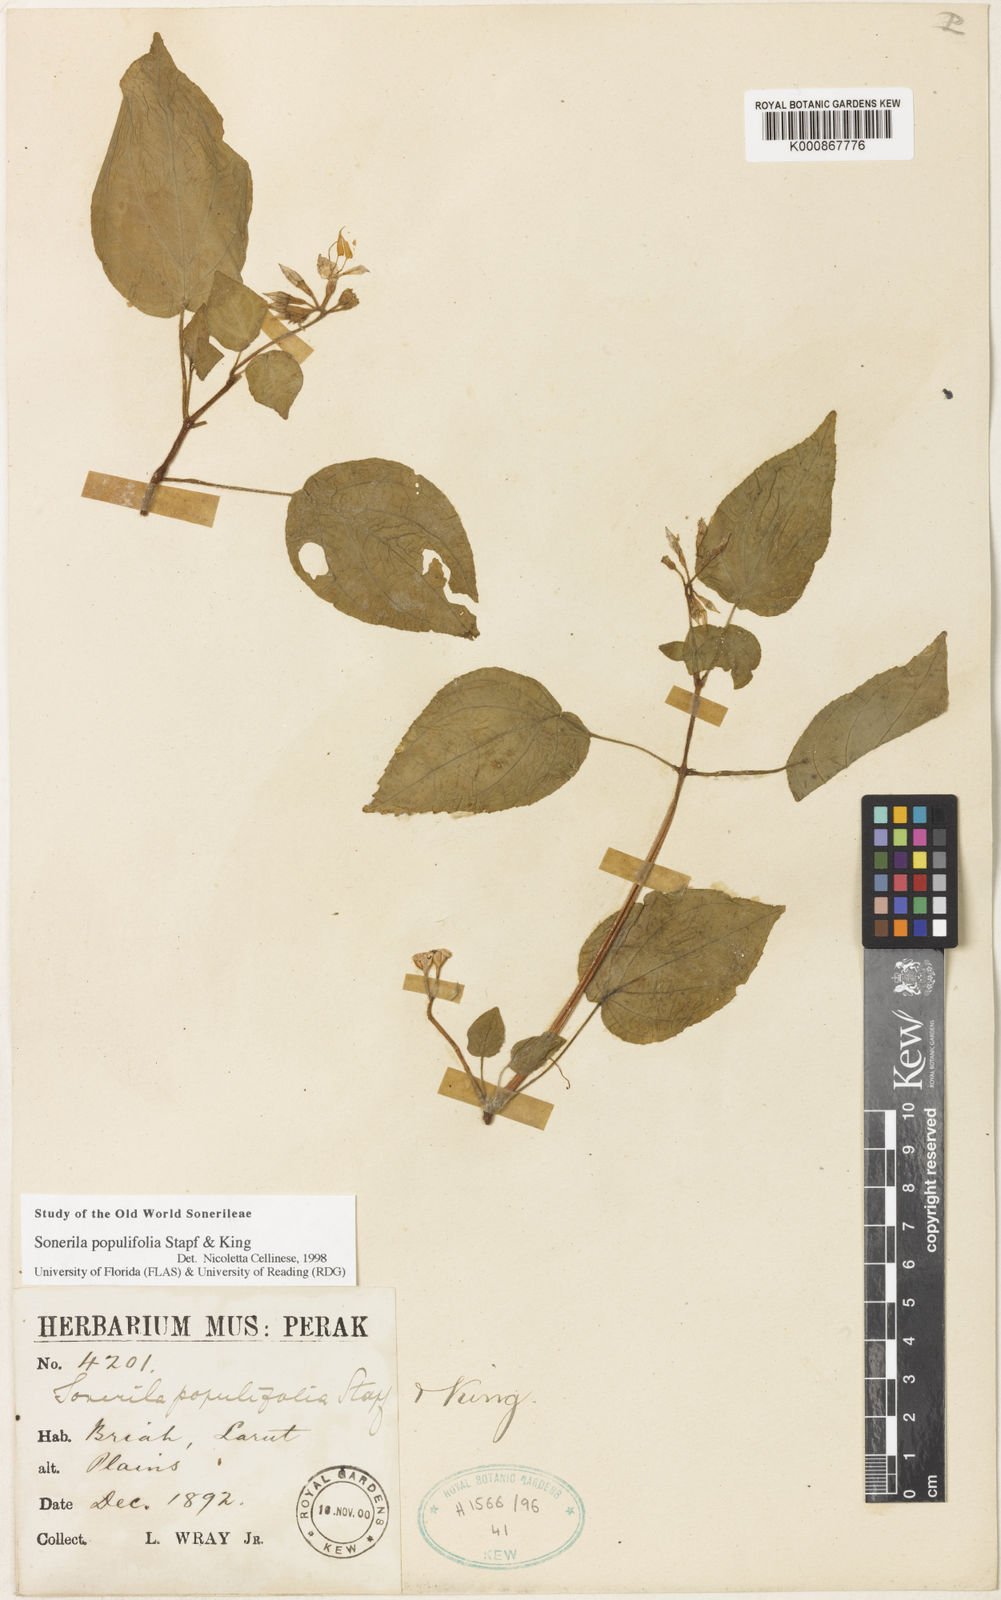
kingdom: Plantae
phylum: Tracheophyta
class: Magnoliopsida
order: Myrtales
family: Melastomataceae
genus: Sonerila
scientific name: Sonerila populifolia
